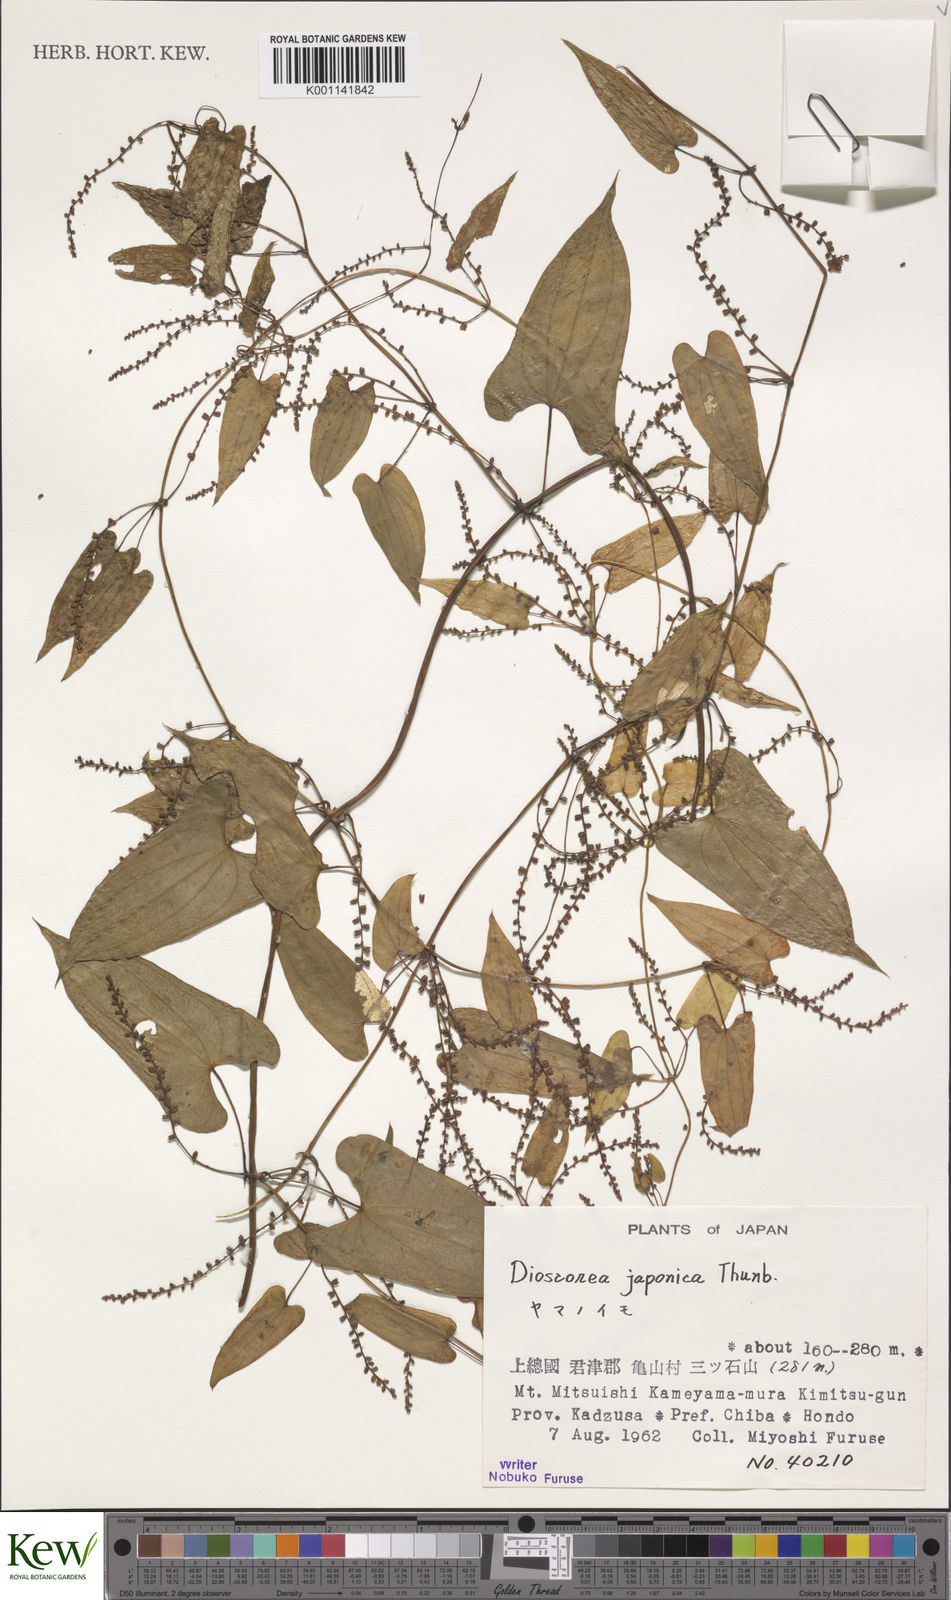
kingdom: Plantae
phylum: Tracheophyta
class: Liliopsida
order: Dioscoreales
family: Dioscoreaceae
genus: Dioscorea
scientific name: Dioscorea japonica
